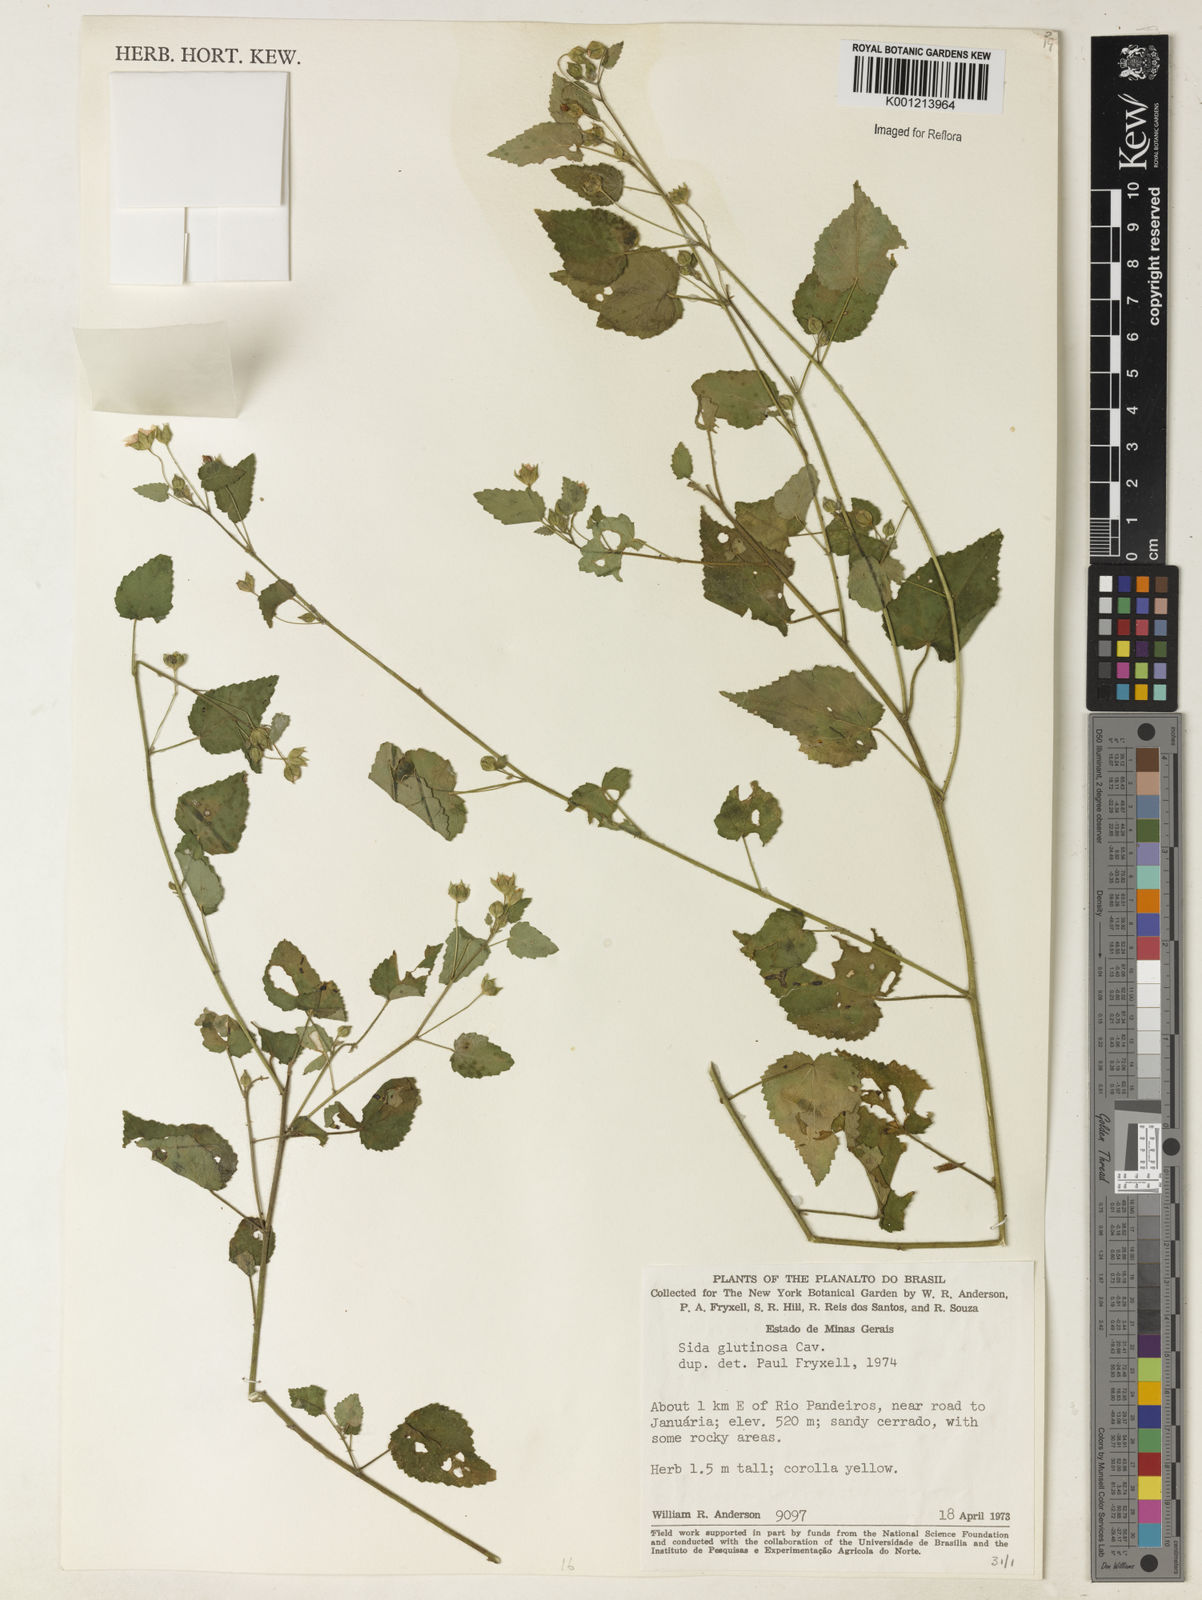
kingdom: Plantae
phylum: Tracheophyta
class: Magnoliopsida
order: Malvales
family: Malvaceae
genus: Sida
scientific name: Sida glutinosa
